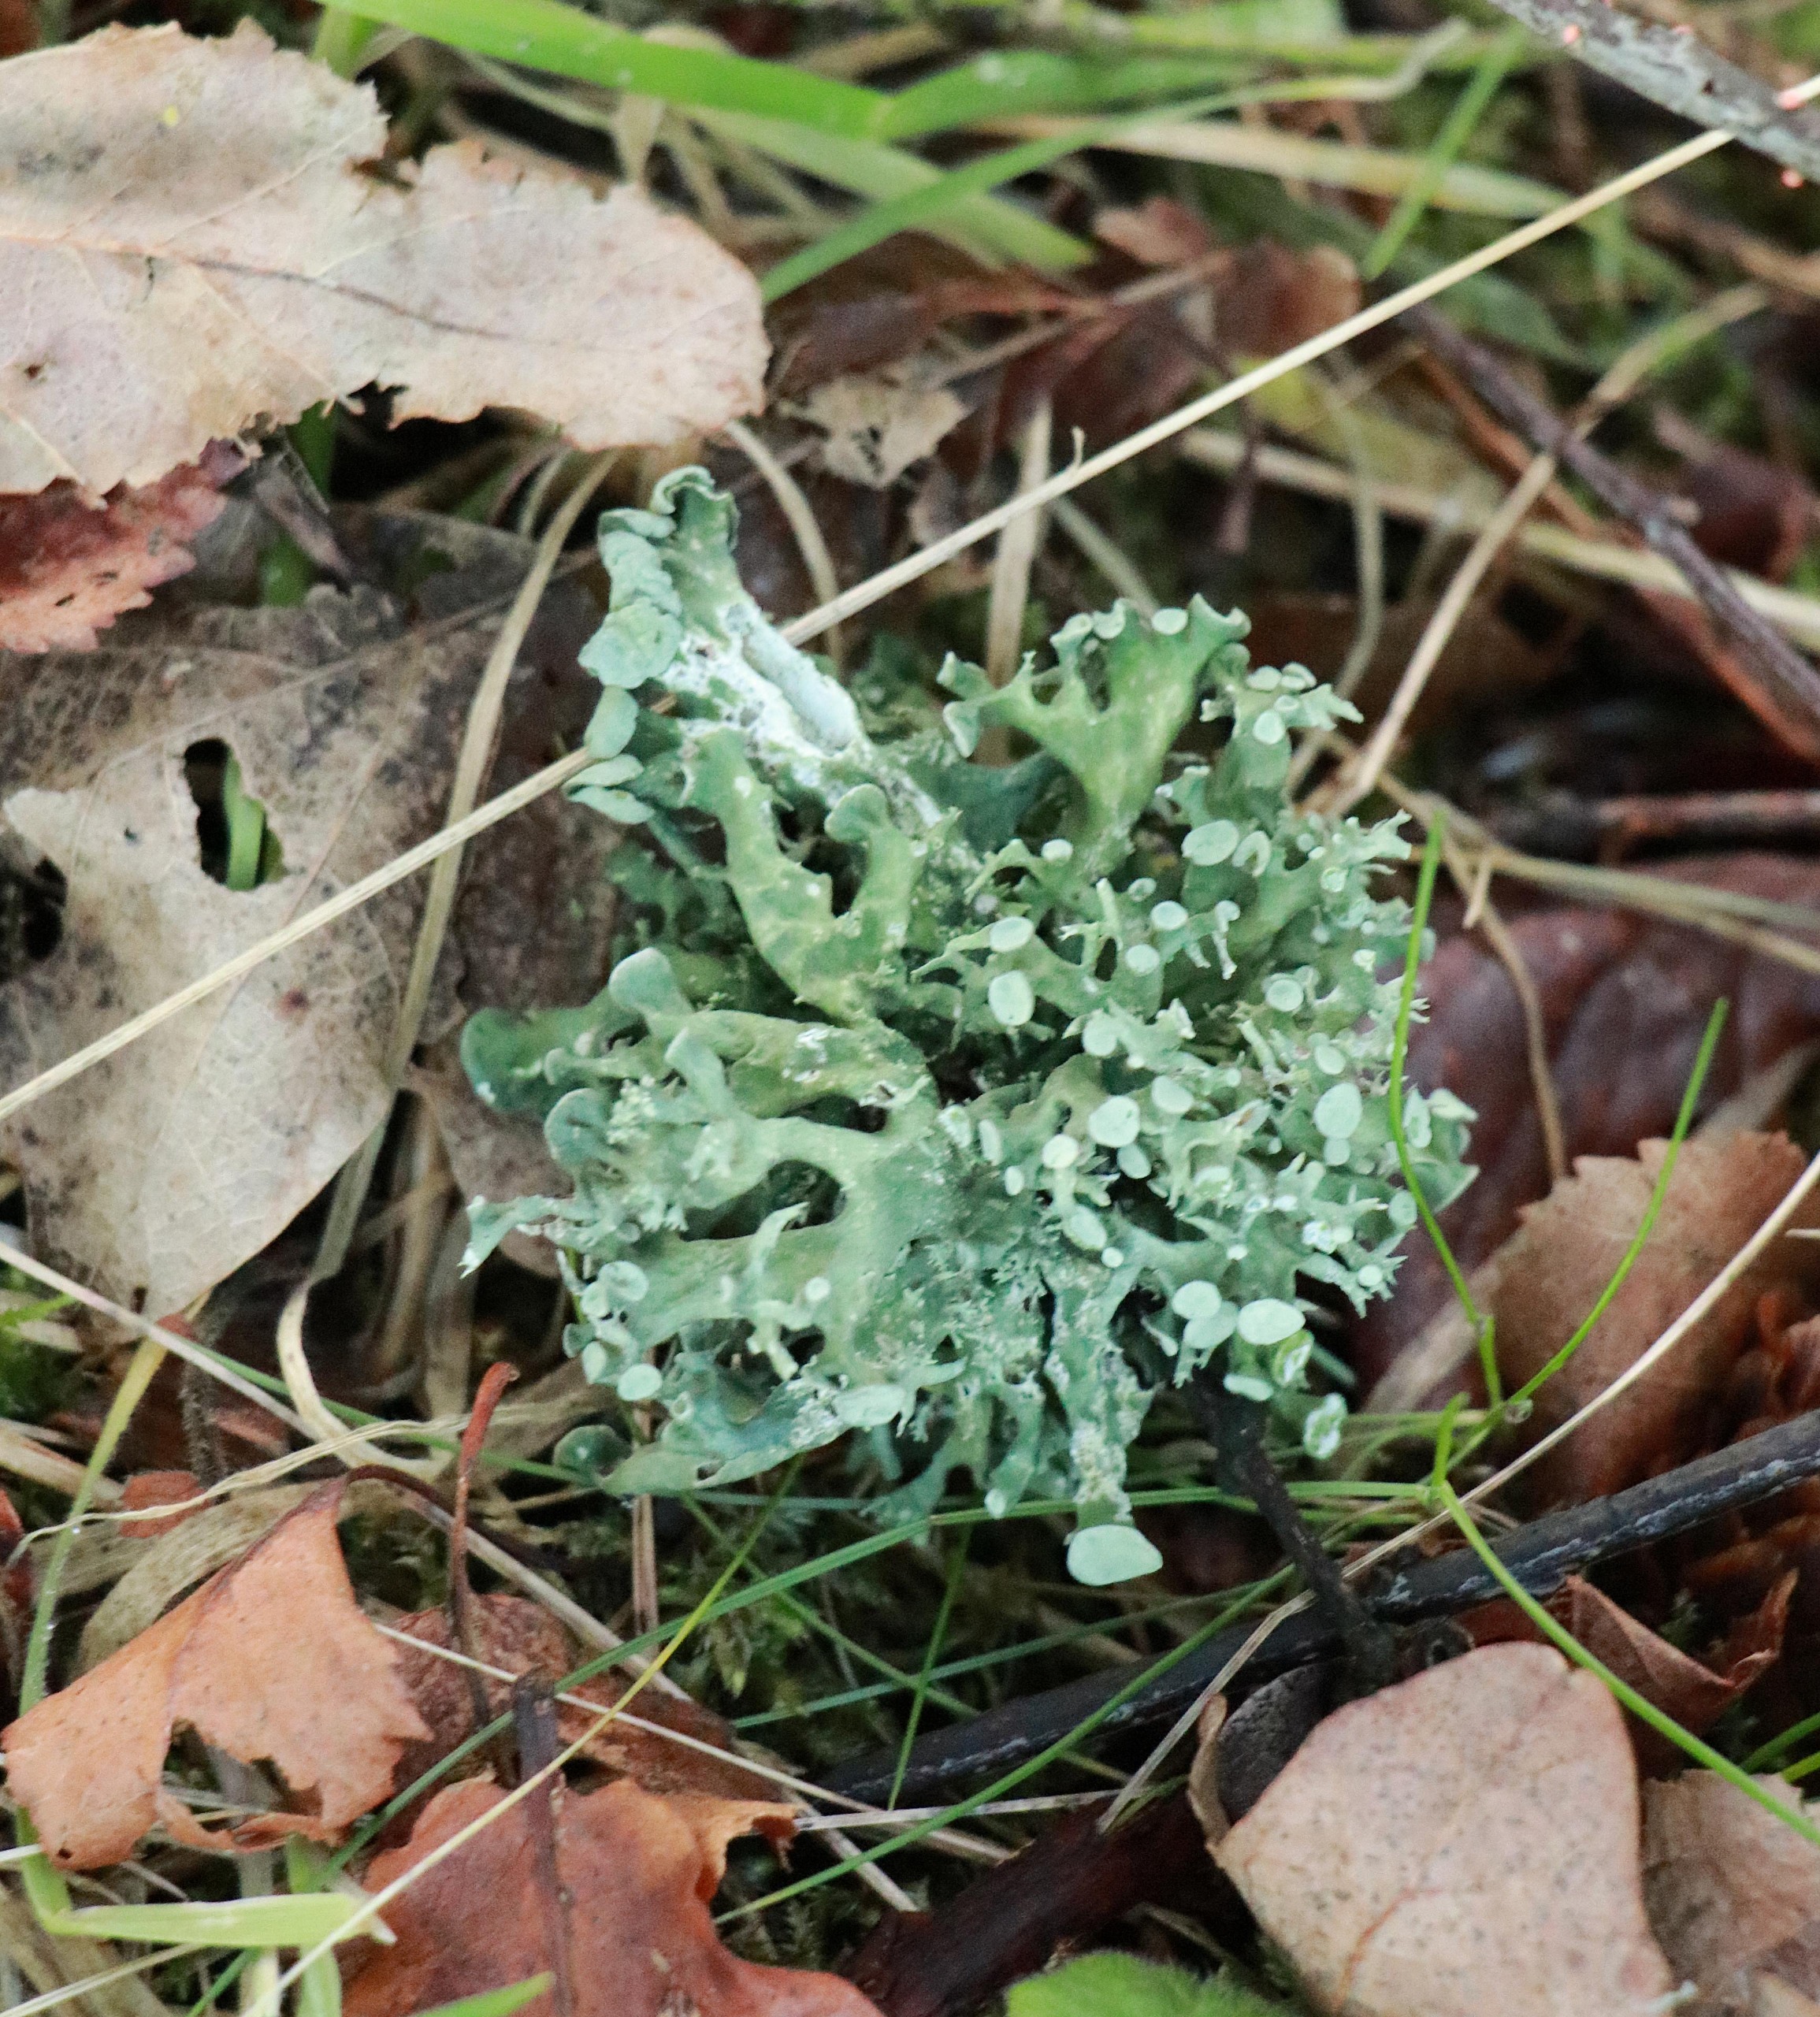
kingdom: Fungi
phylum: Ascomycota
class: Lecanoromycetes
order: Lecanorales
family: Ramalinaceae
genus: Ramalina
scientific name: Ramalina fastigiata
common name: Tue-grenlav
